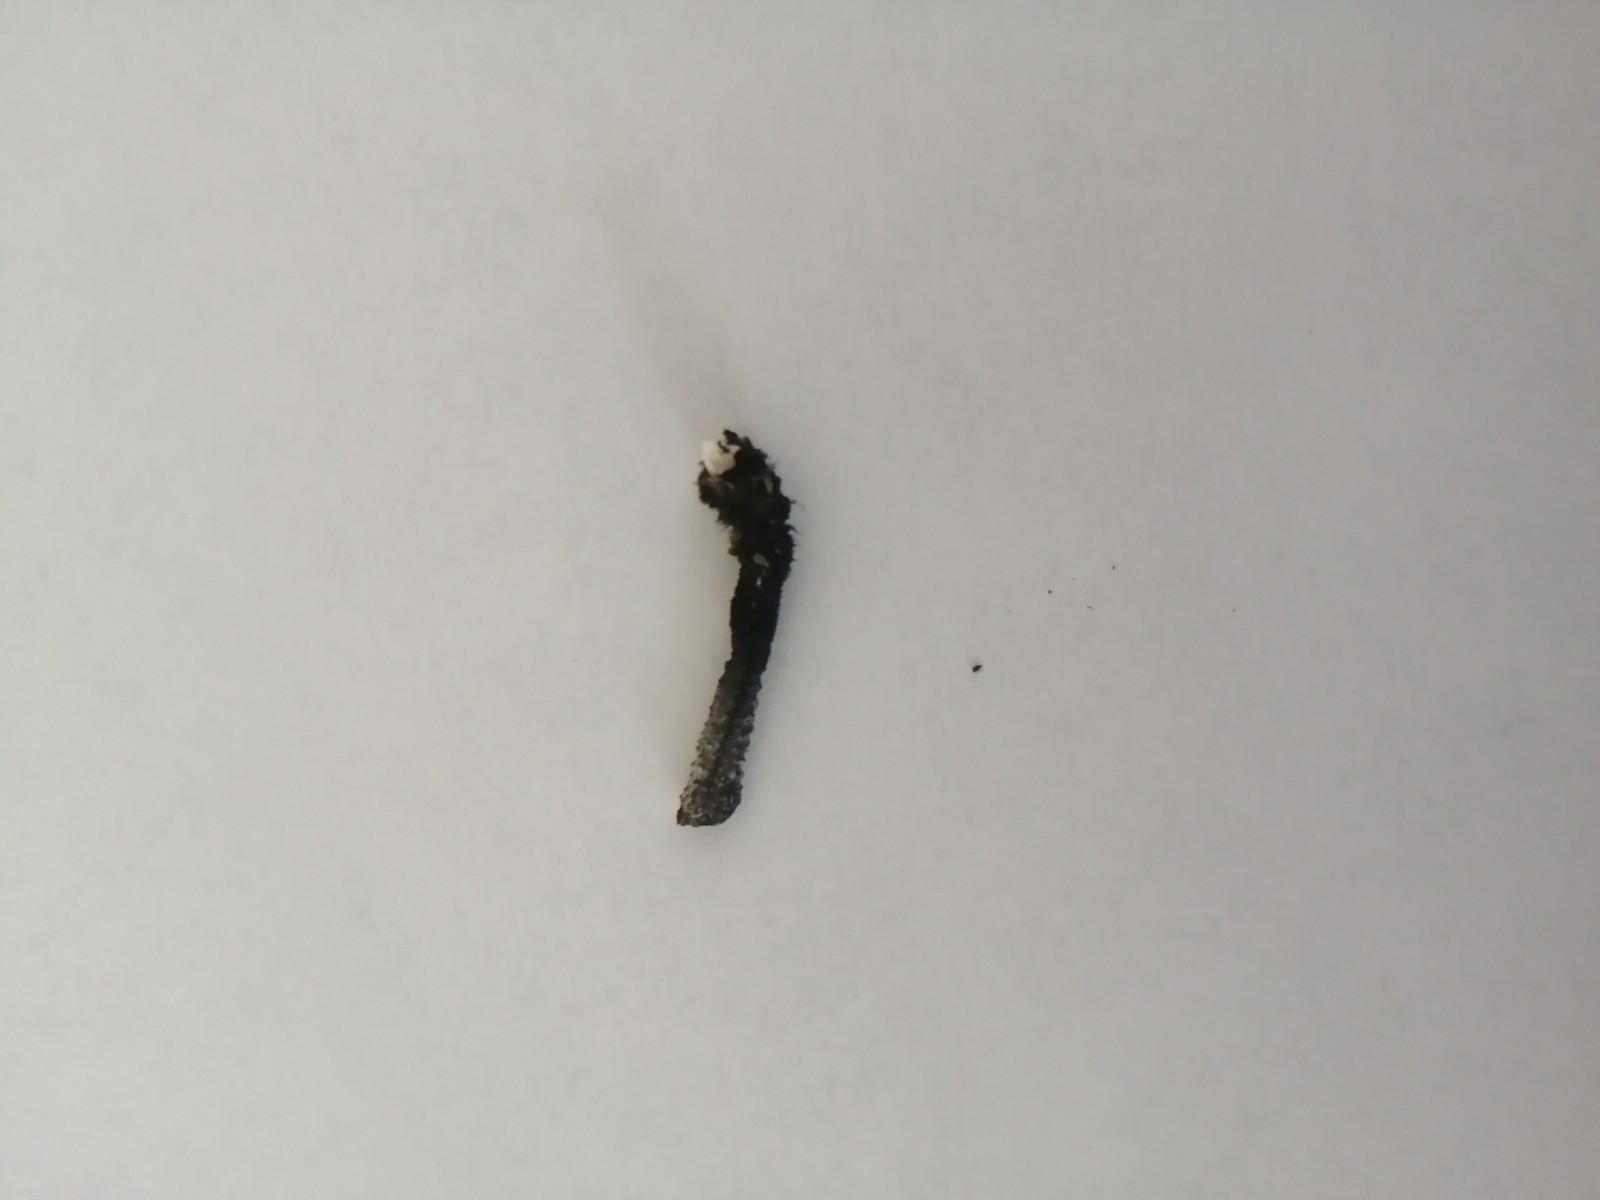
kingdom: Fungi
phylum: Ascomycota
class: Sordariomycetes
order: Xylariales
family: Xylariaceae
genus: Xylaria
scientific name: Xylaria hypoxylon
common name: grenet stødsvamp
